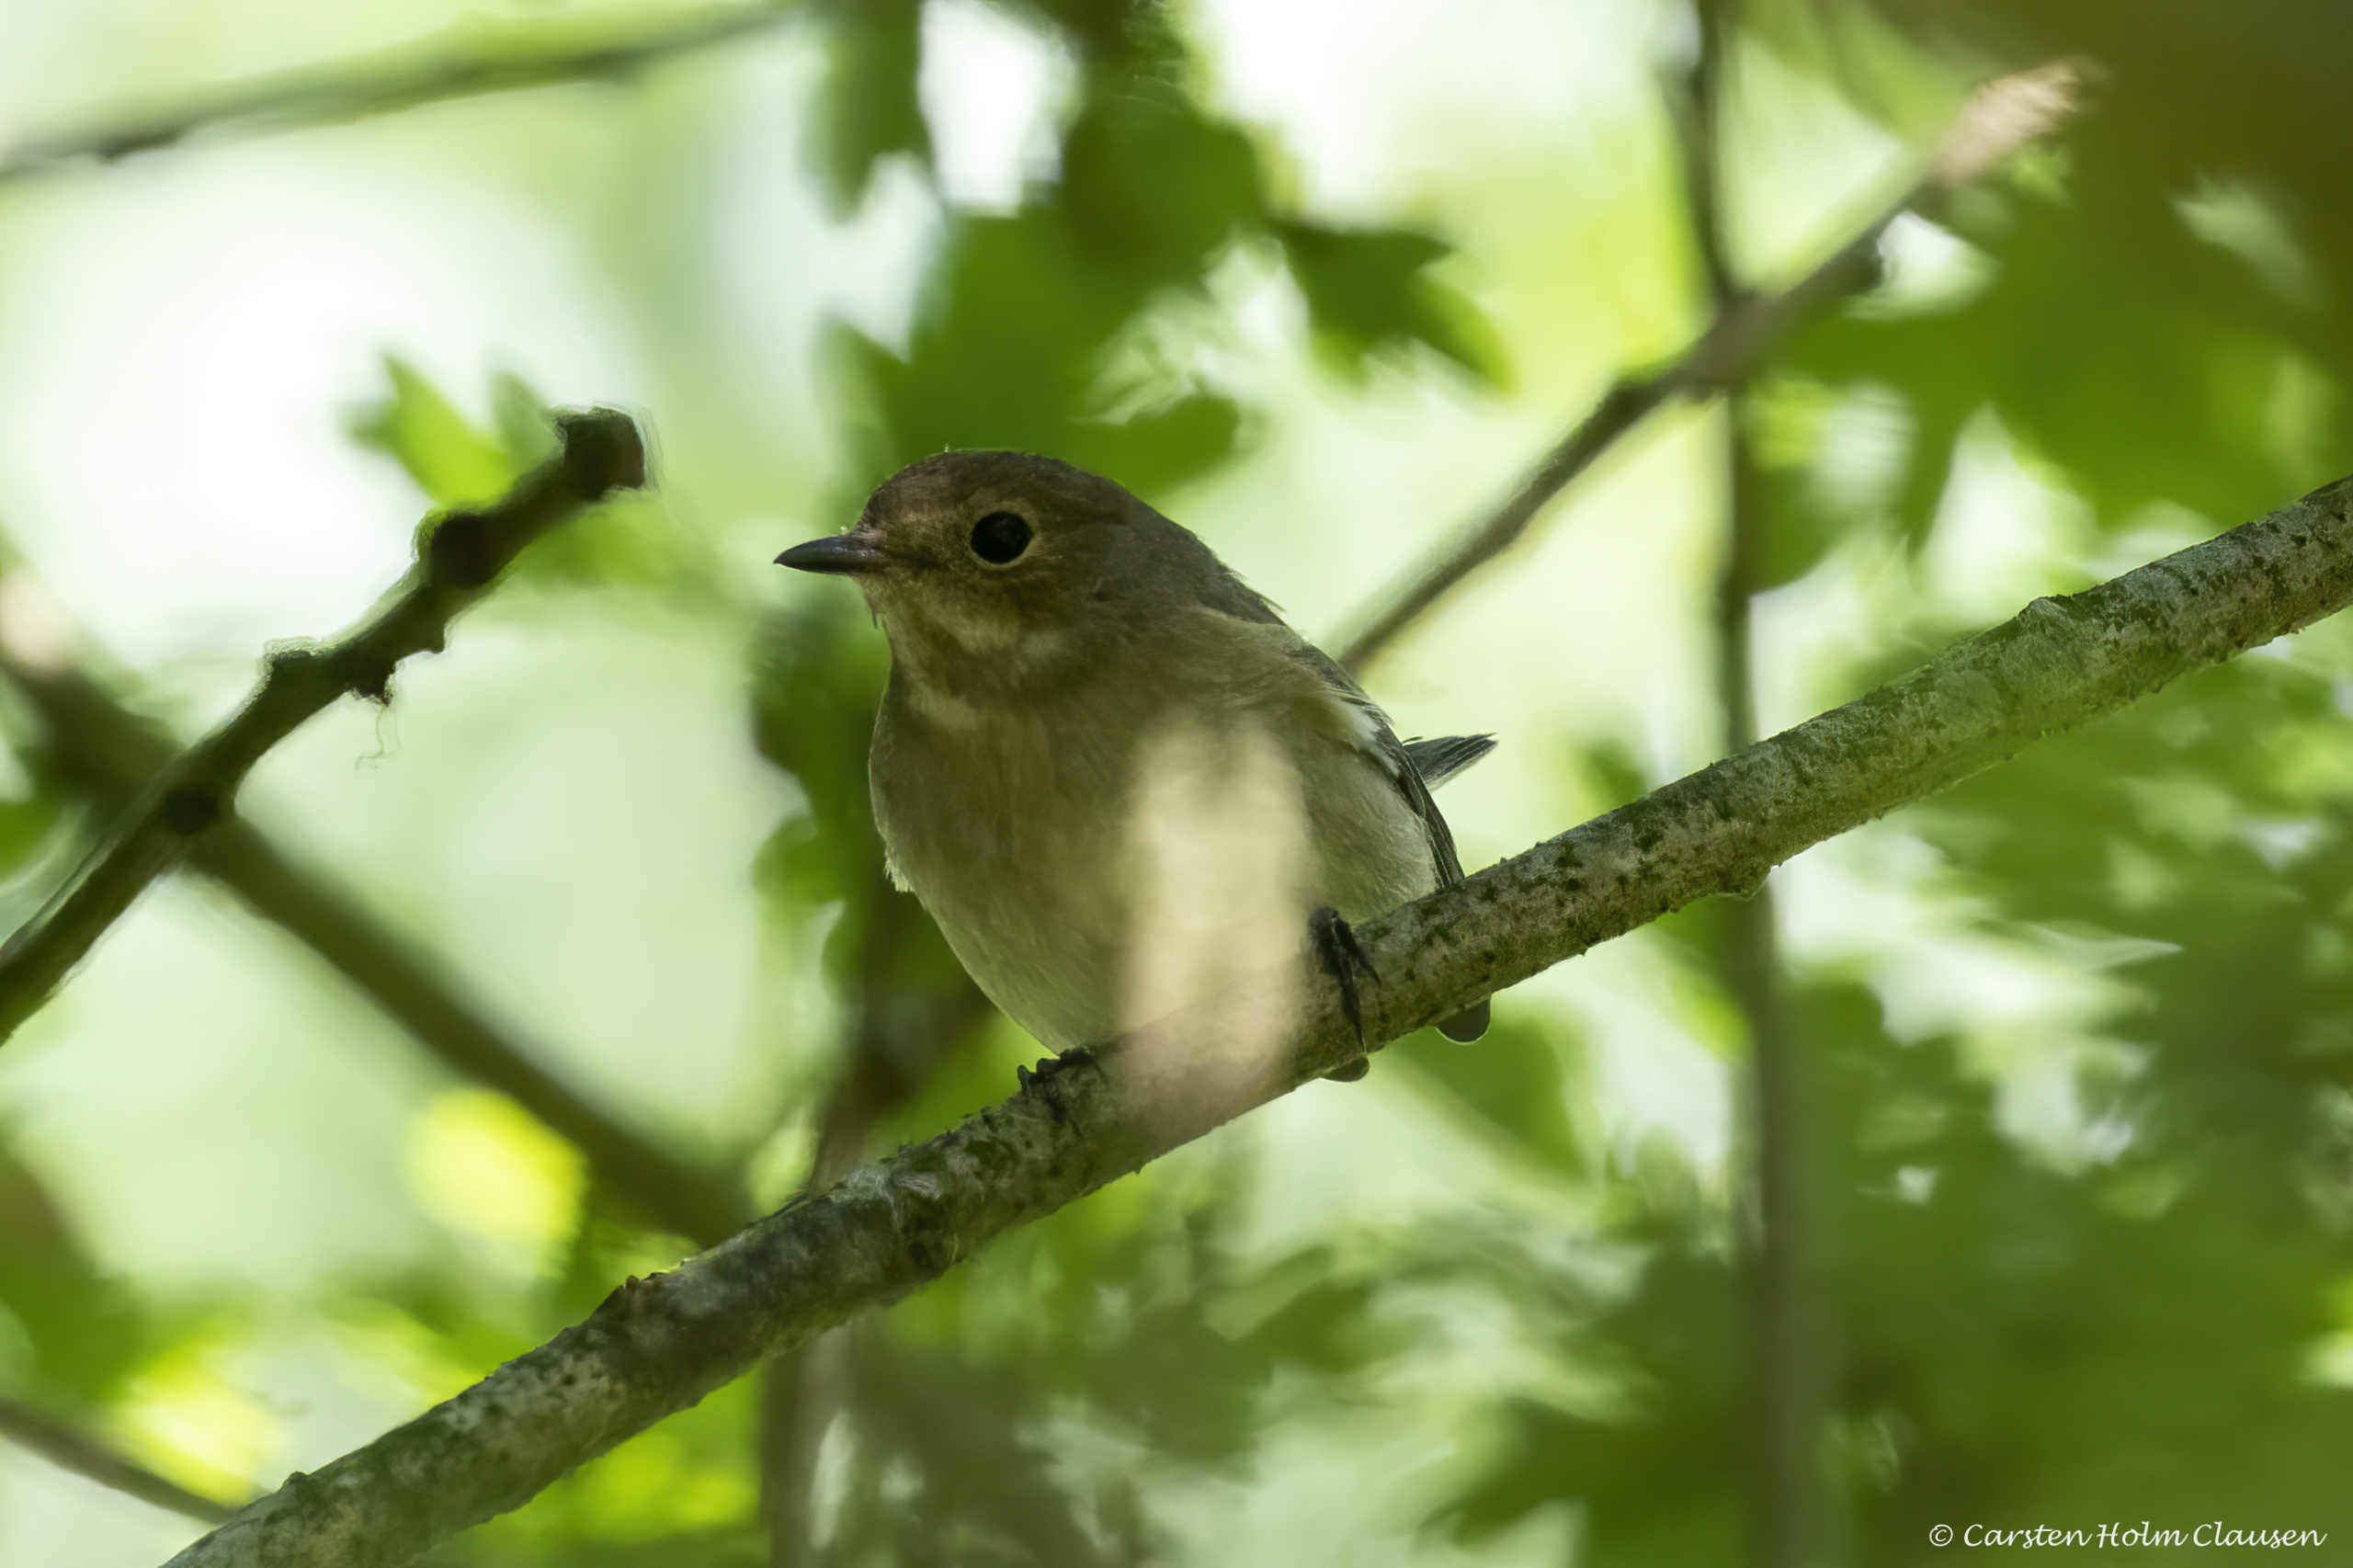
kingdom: Animalia
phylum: Chordata
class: Aves
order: Passeriformes
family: Muscicapidae
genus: Ficedula
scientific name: Ficedula hypoleuca
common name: Broget fluesnapper
